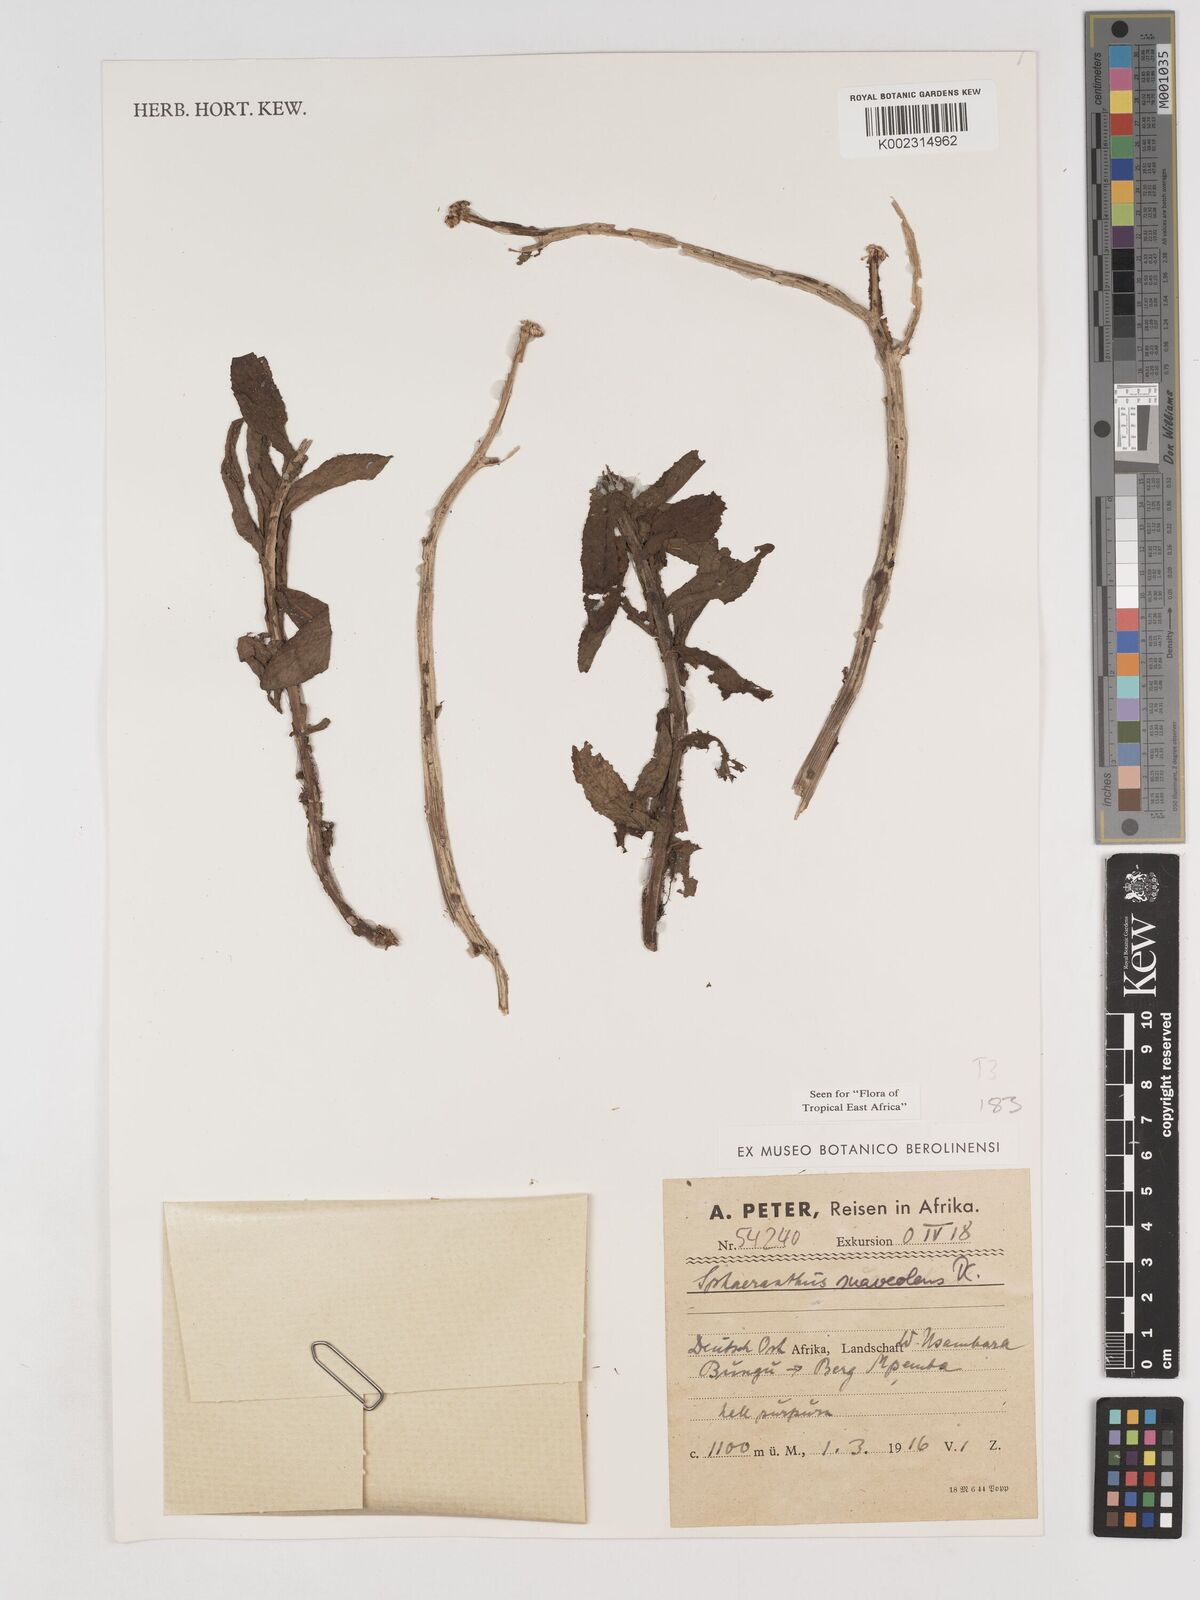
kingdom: Plantae
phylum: Tracheophyta
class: Magnoliopsida
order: Asterales
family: Asteraceae
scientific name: Asteraceae
